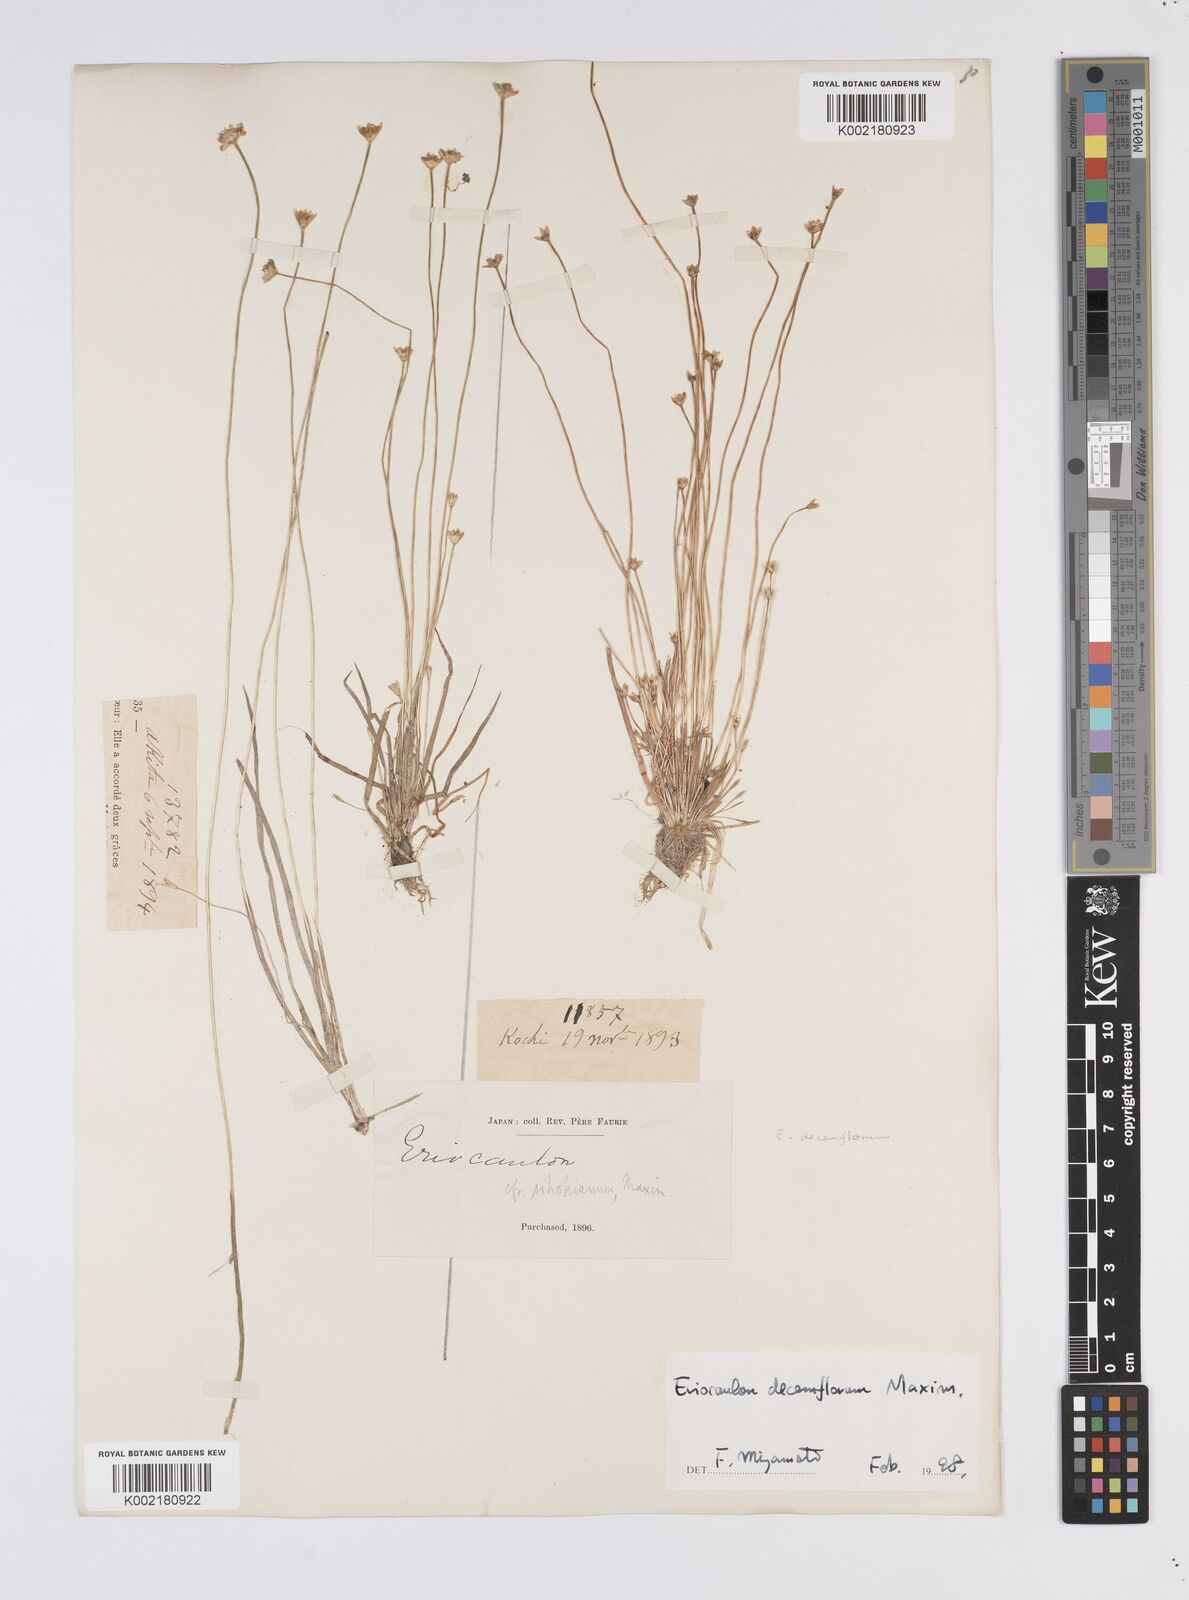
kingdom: Plantae
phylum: Tracheophyta
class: Liliopsida
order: Poales
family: Eriocaulaceae
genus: Eriocaulon
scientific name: Eriocaulon decemflorum
